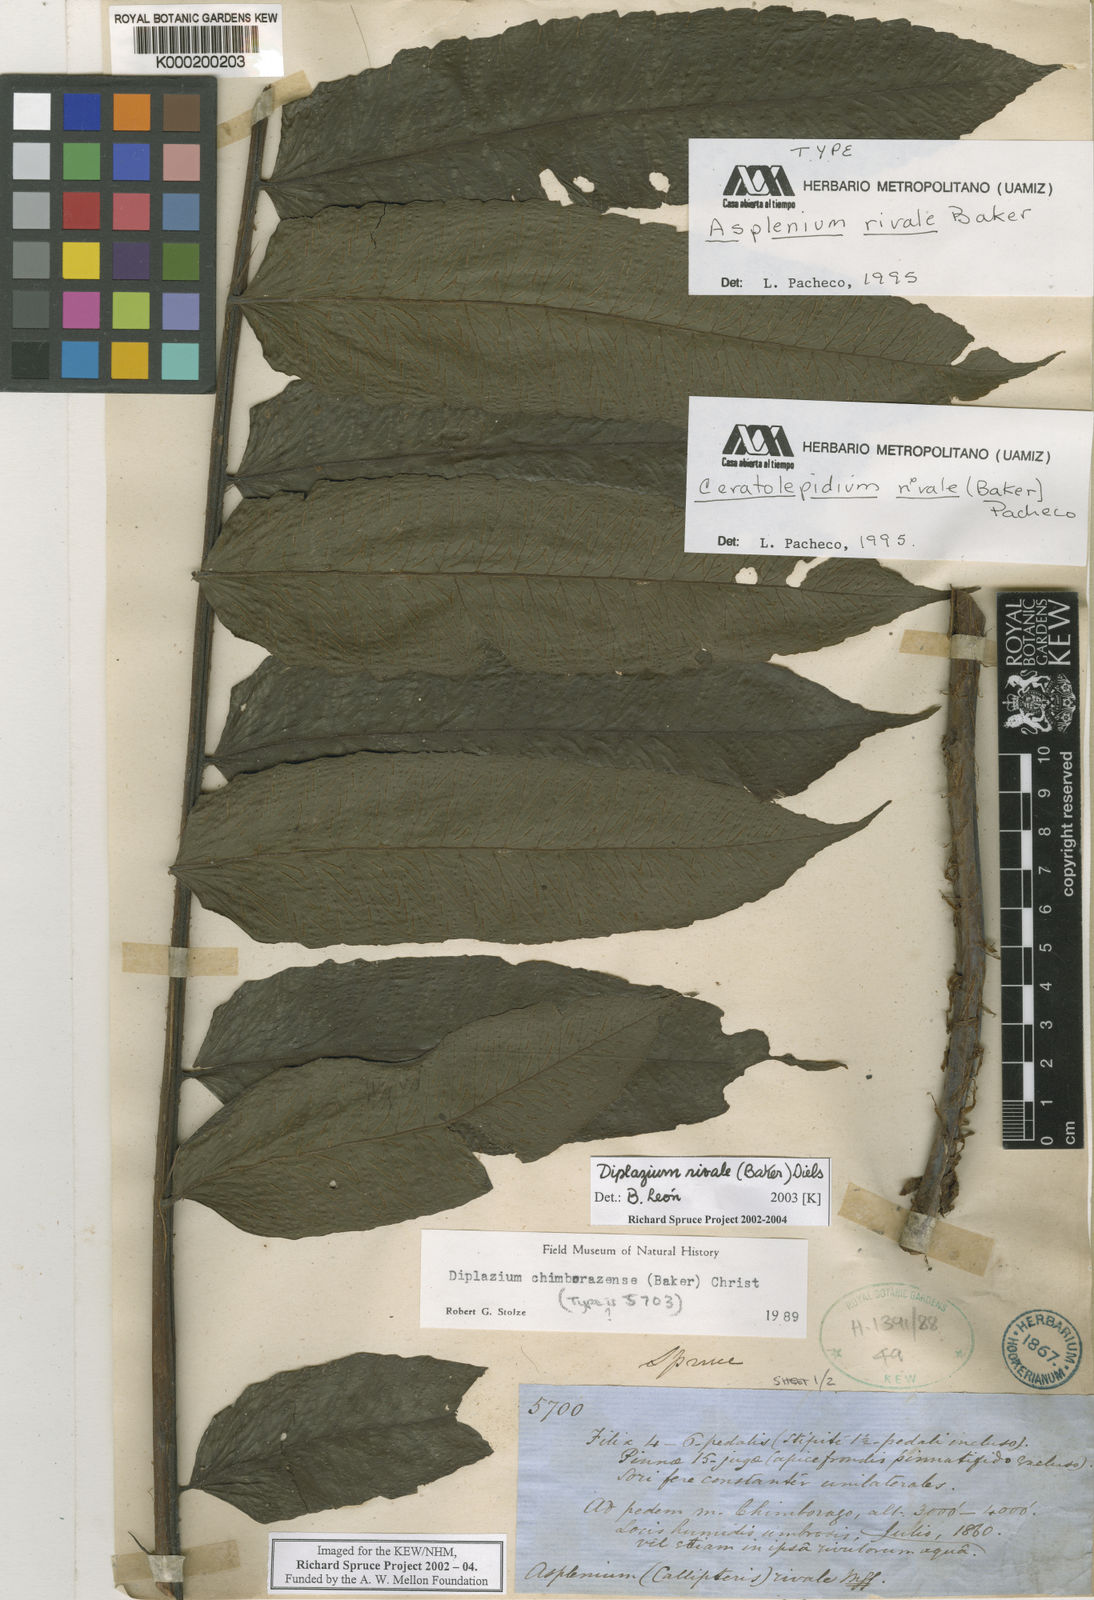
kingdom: Plantae
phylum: Tracheophyta
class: Polypodiopsida
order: Polypodiales
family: Athyriaceae
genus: Diplazium
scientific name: Diplazium rivale
